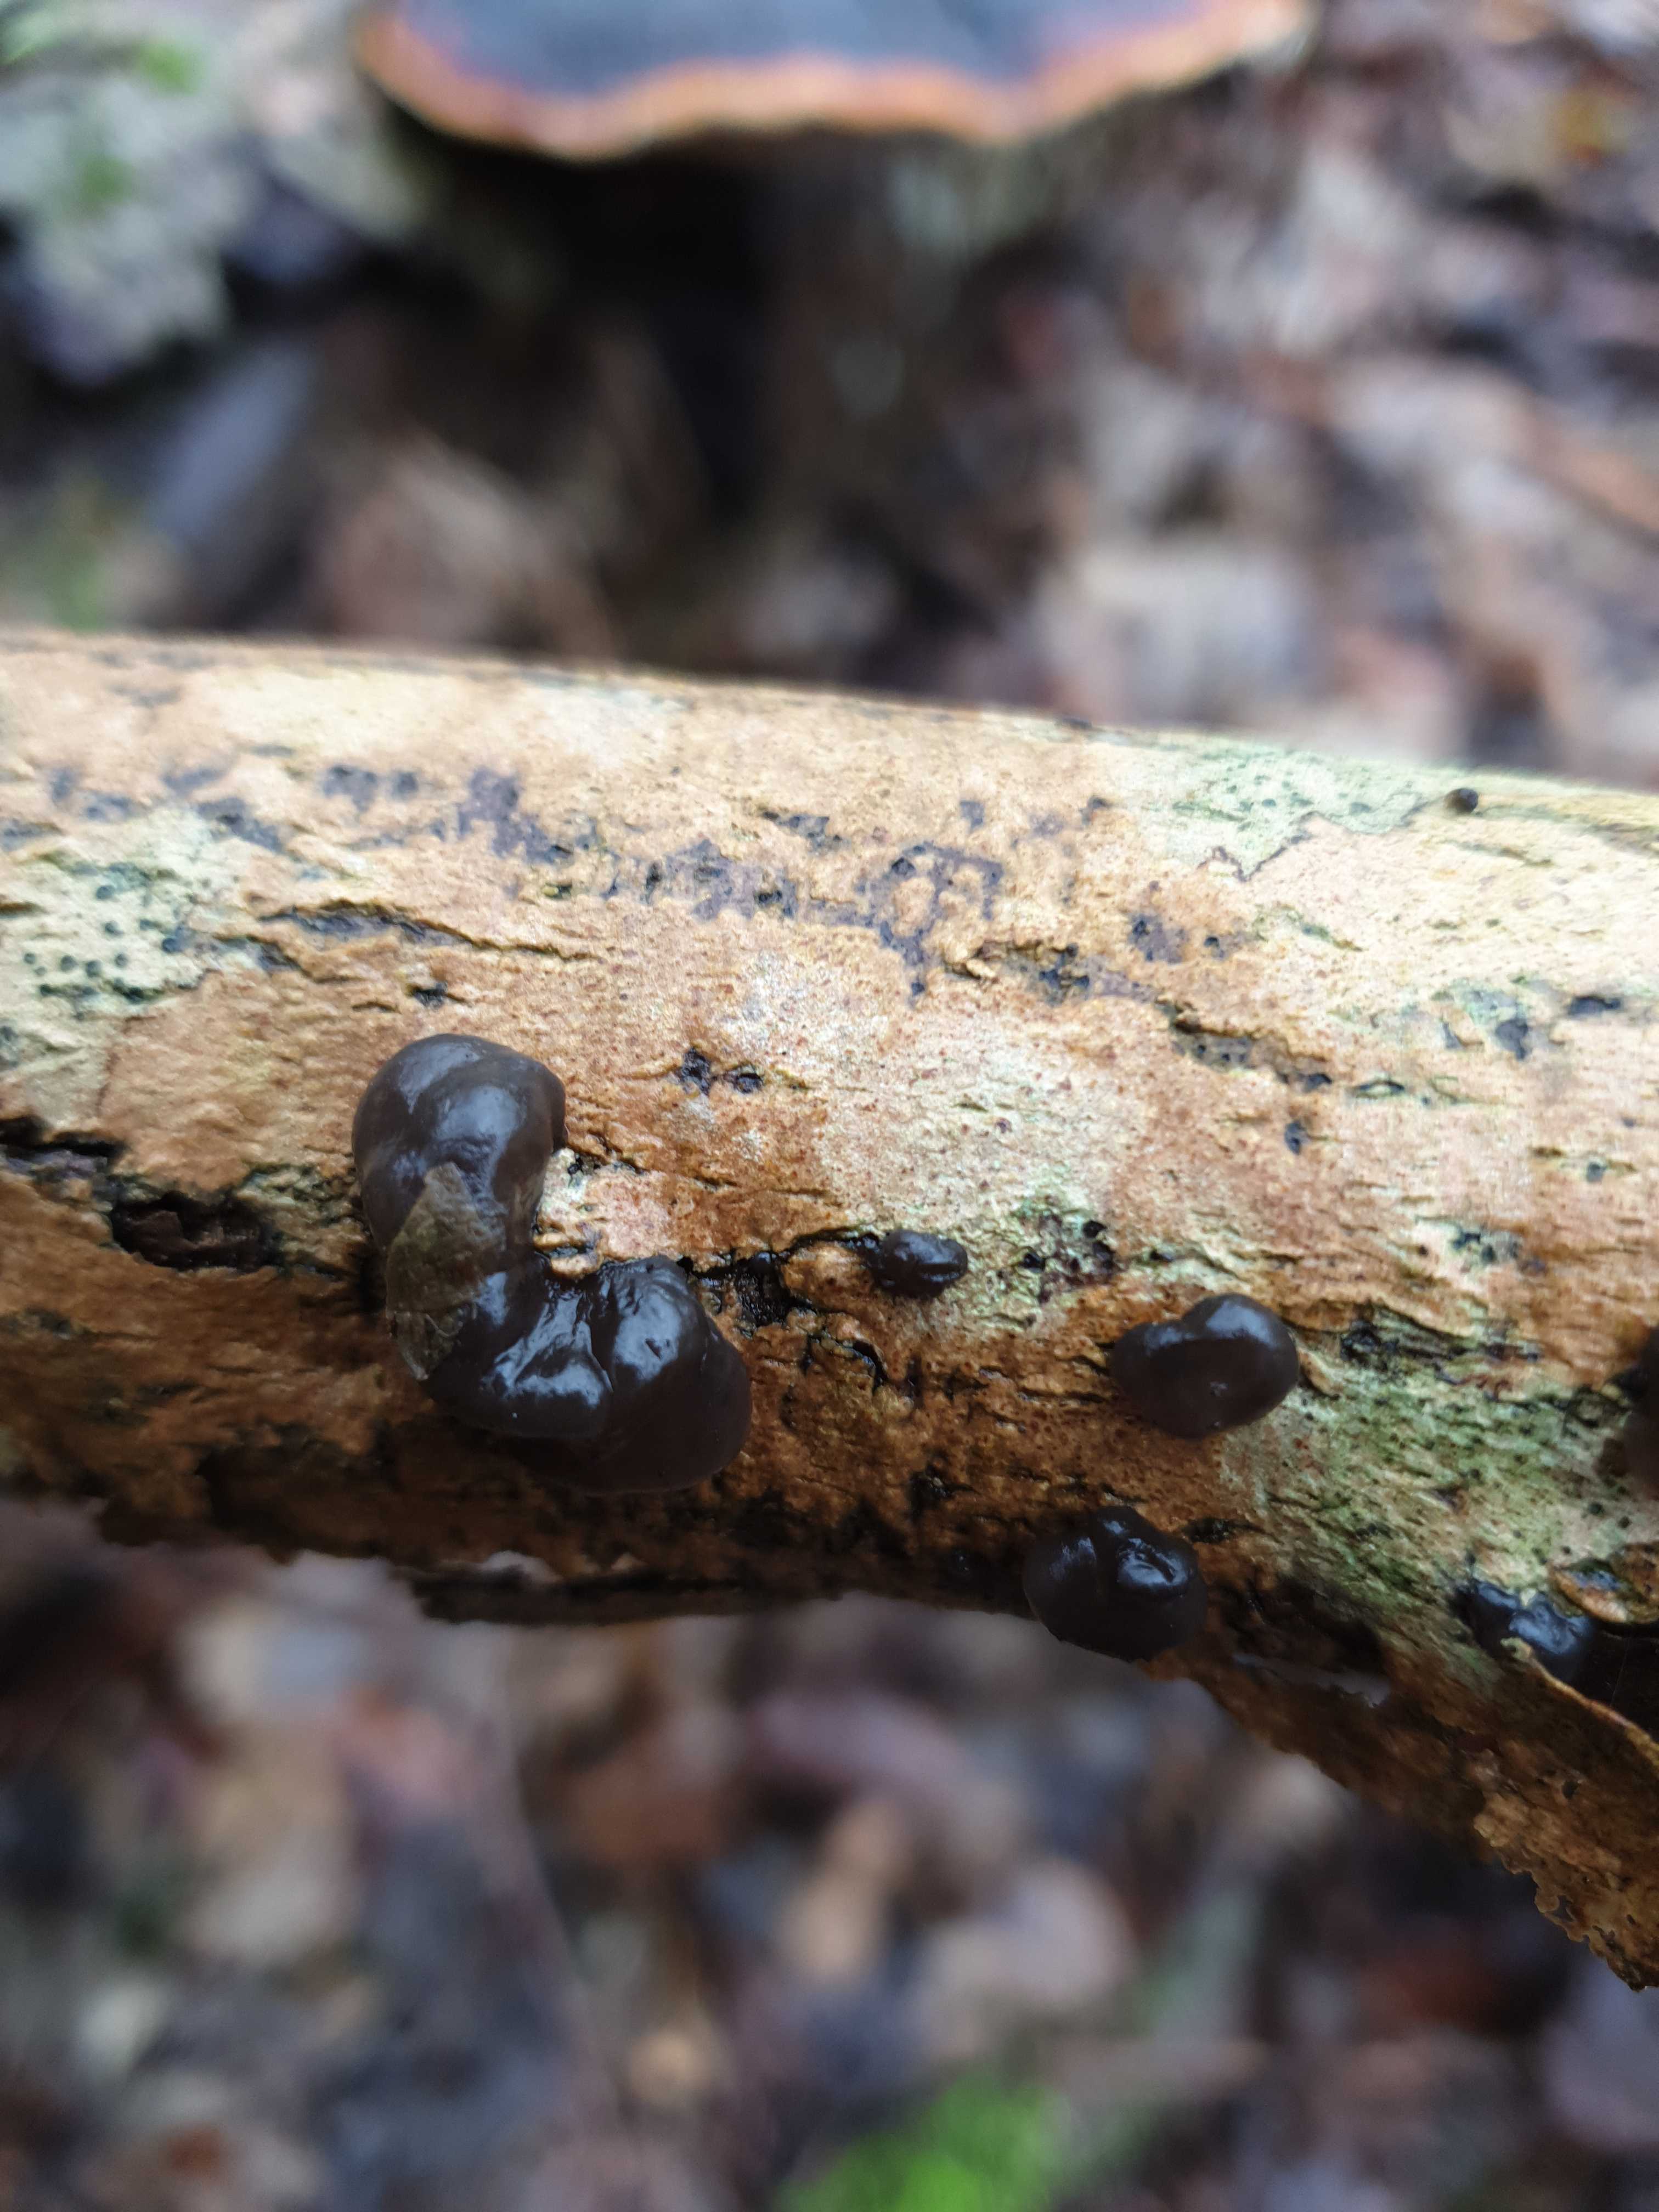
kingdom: Fungi
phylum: Basidiomycota
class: Agaricomycetes
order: Auriculariales
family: Auriculariaceae
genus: Exidia
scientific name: Exidia nigricans
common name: almindelig bævretop
